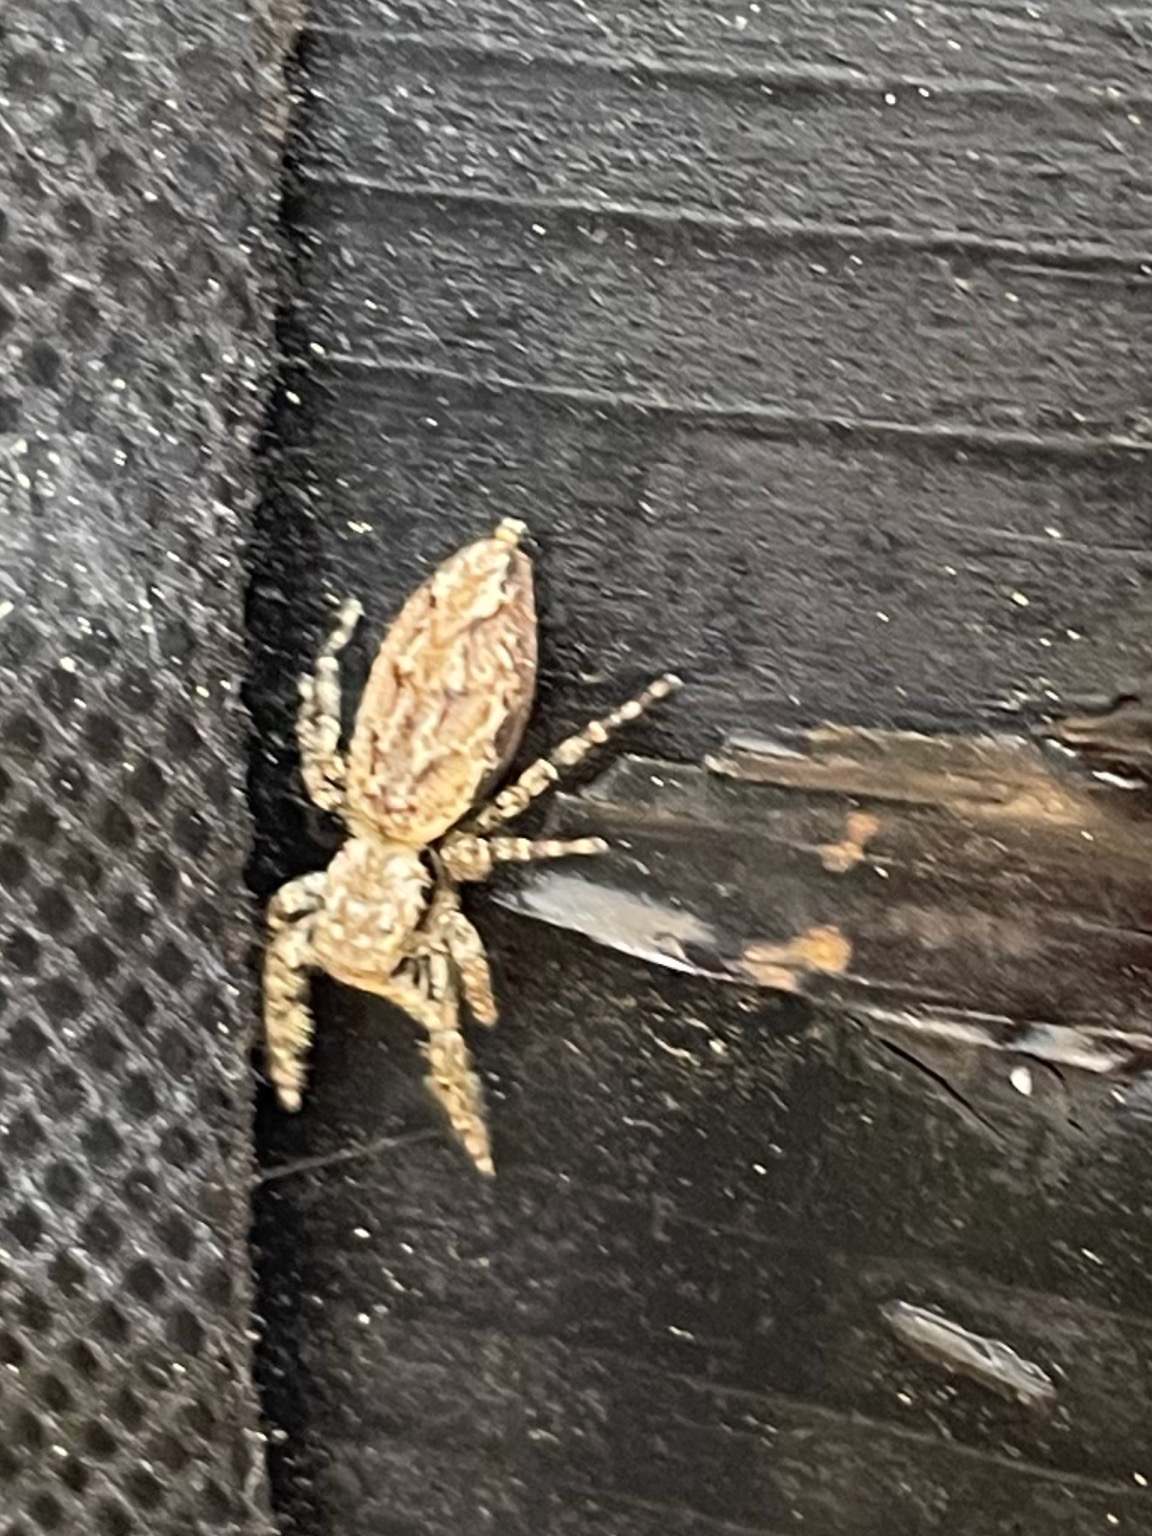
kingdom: Animalia
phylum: Arthropoda
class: Arachnida
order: Araneae
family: Salticidae
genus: Marpissa
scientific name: Marpissa muscosa
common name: Stor springedderkop
